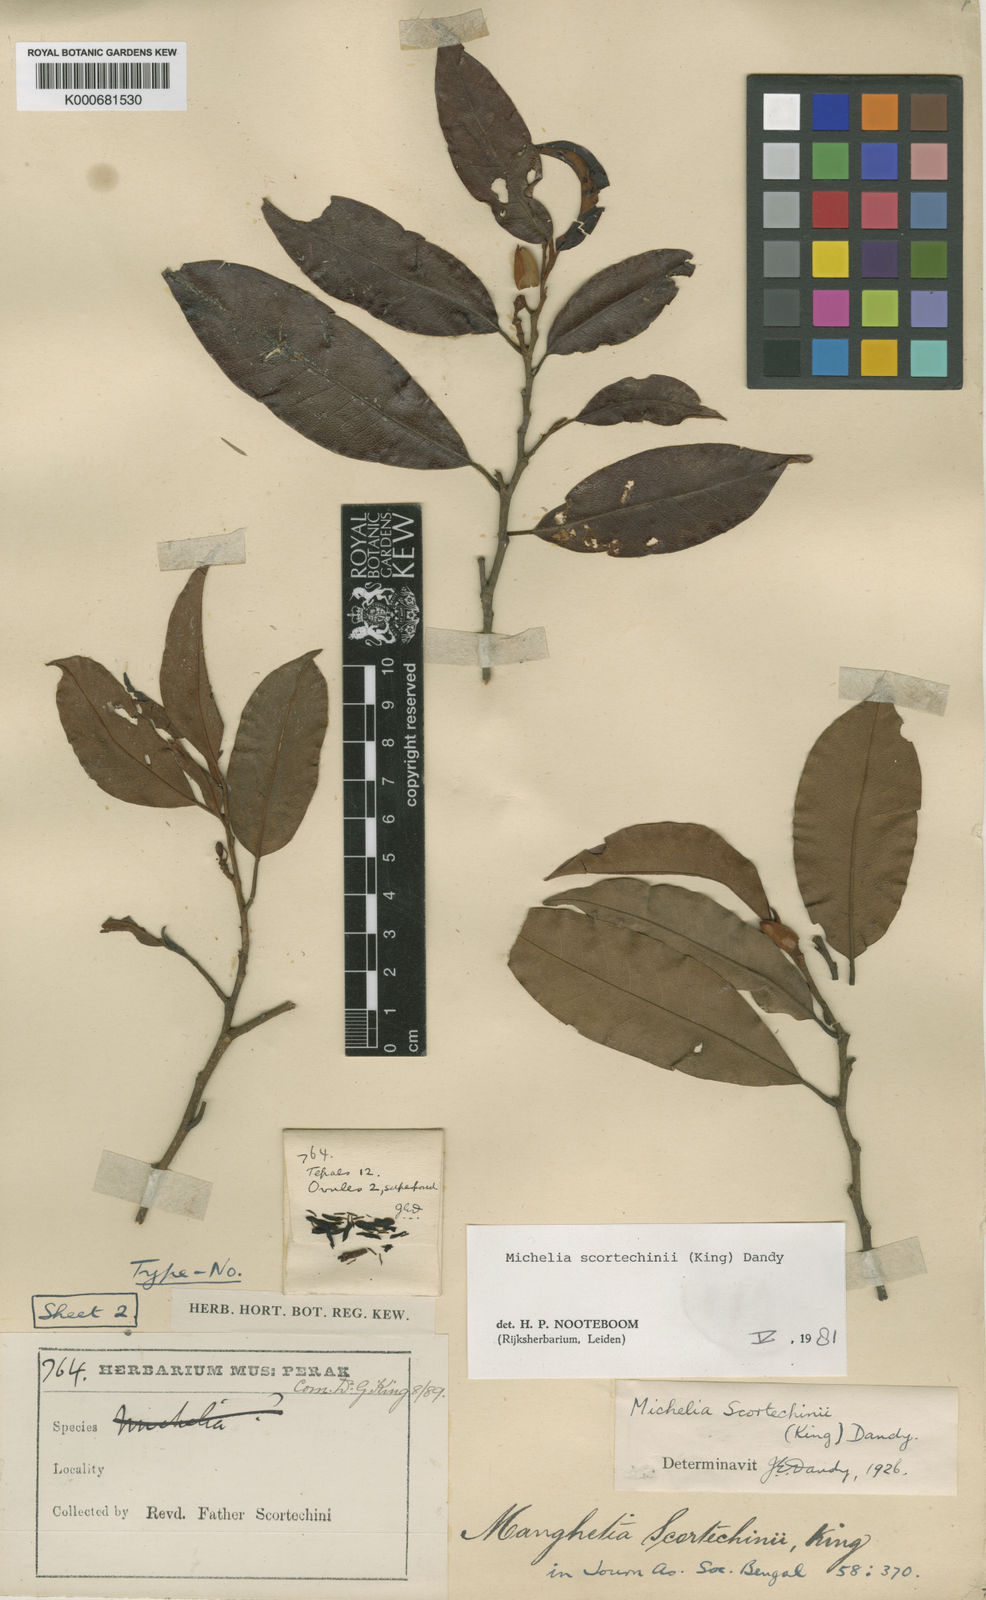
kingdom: Plantae
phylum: Tracheophyta
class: Magnoliopsida
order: Magnoliales
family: Magnoliaceae
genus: Magnolia
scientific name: Magnolia scortechinii
